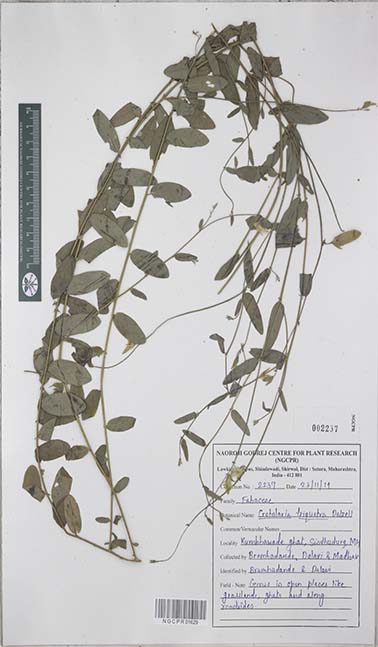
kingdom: Plantae
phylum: Tracheophyta
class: Magnoliopsida
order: Fabales
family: Fabaceae
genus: Crotalaria
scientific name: Crotalaria triquetra
